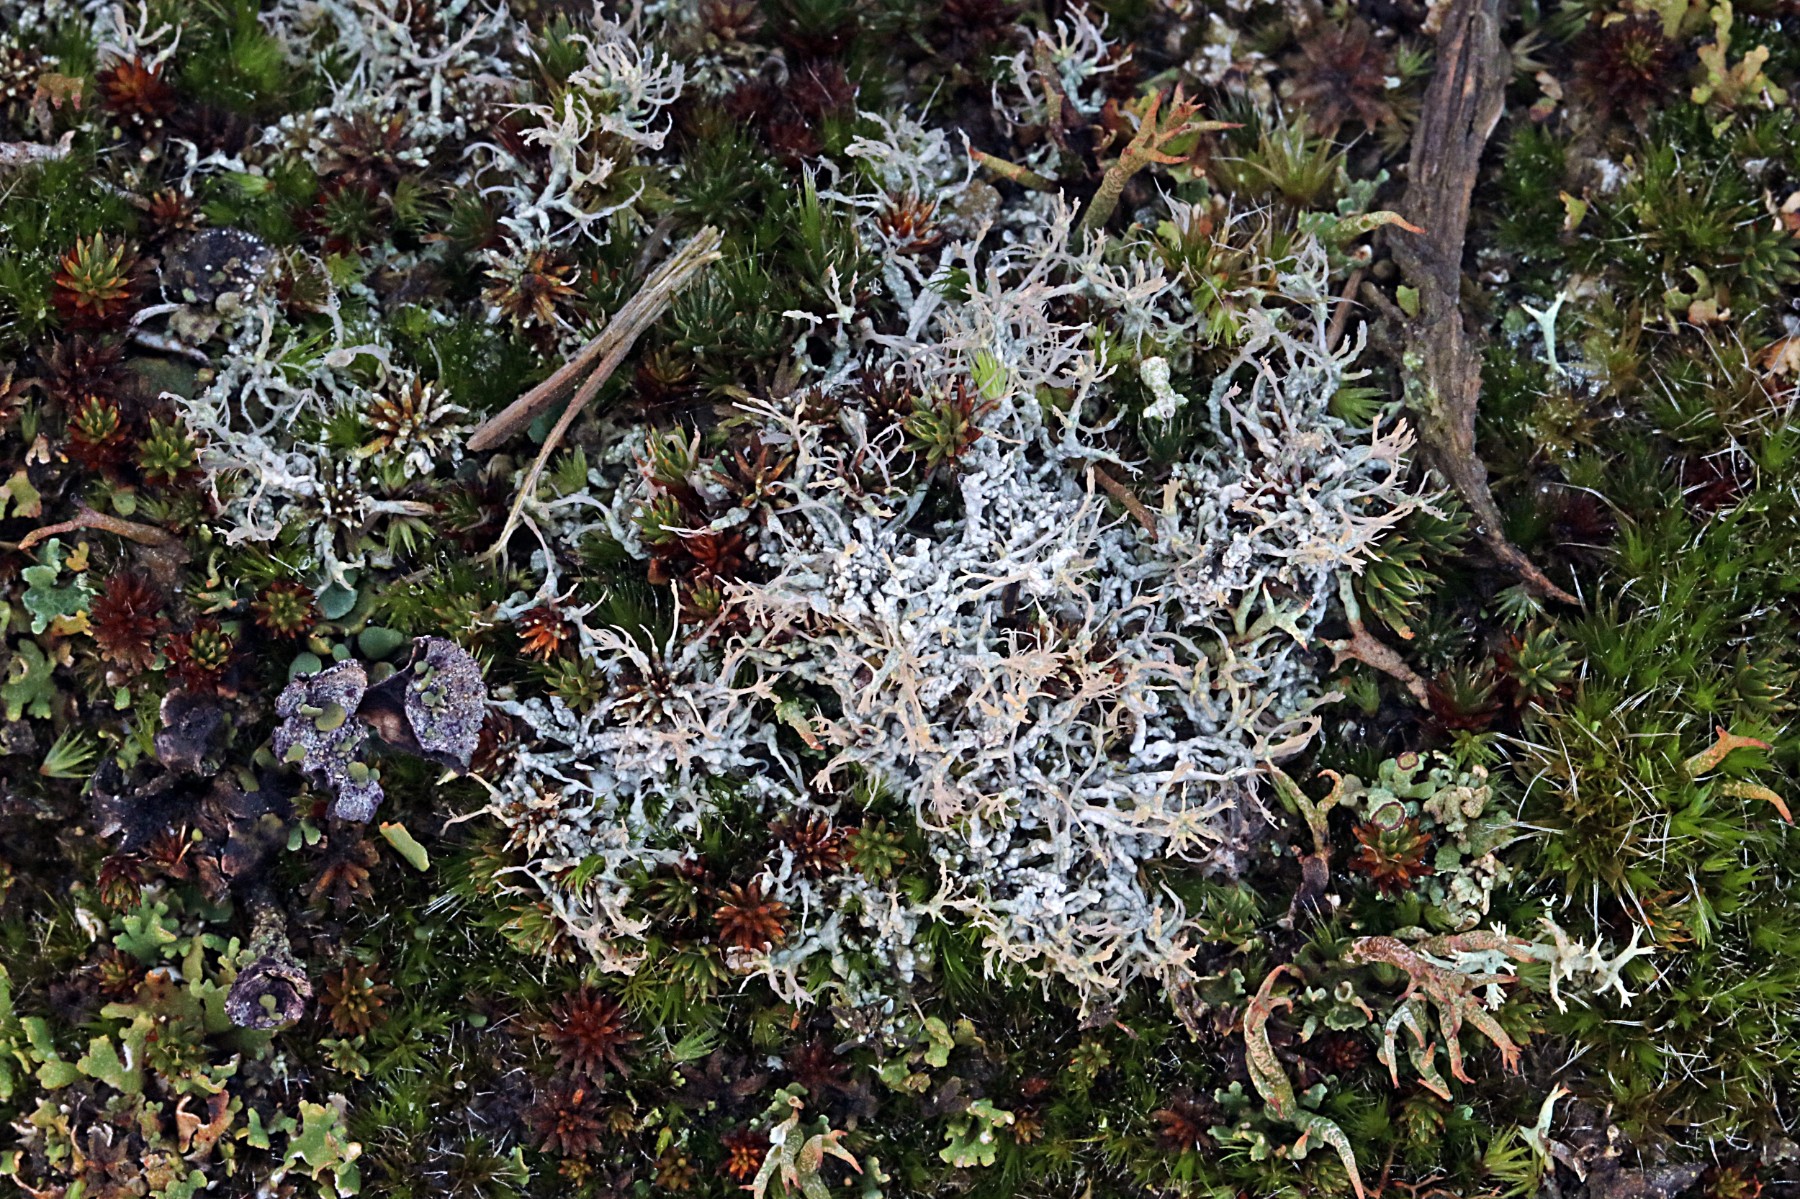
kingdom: Fungi
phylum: Ascomycota
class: Lecanoromycetes
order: Pertusariales
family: Ochrolechiaceae
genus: Ochrolechia
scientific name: Ochrolechia frigida
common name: fjeld-blegskivelav
